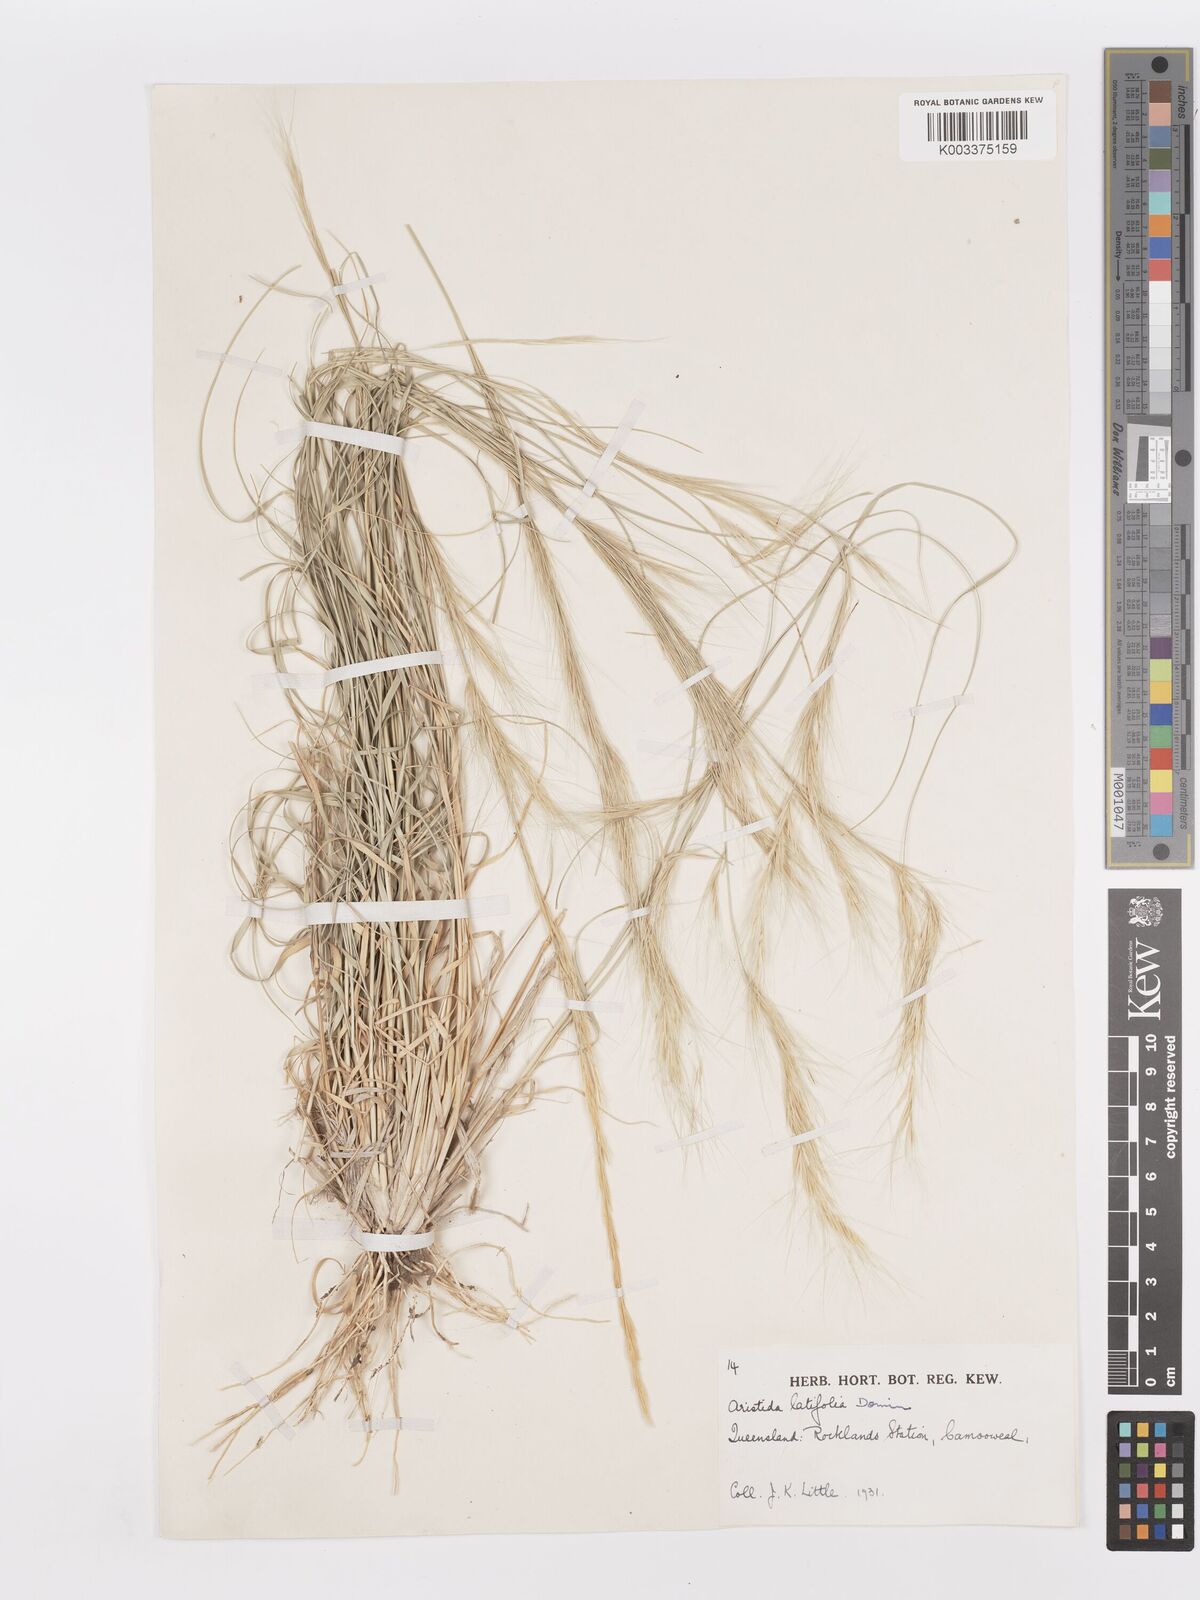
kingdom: Plantae
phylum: Tracheophyta
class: Liliopsida
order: Poales
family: Poaceae
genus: Aristida
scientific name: Aristida latifolia
